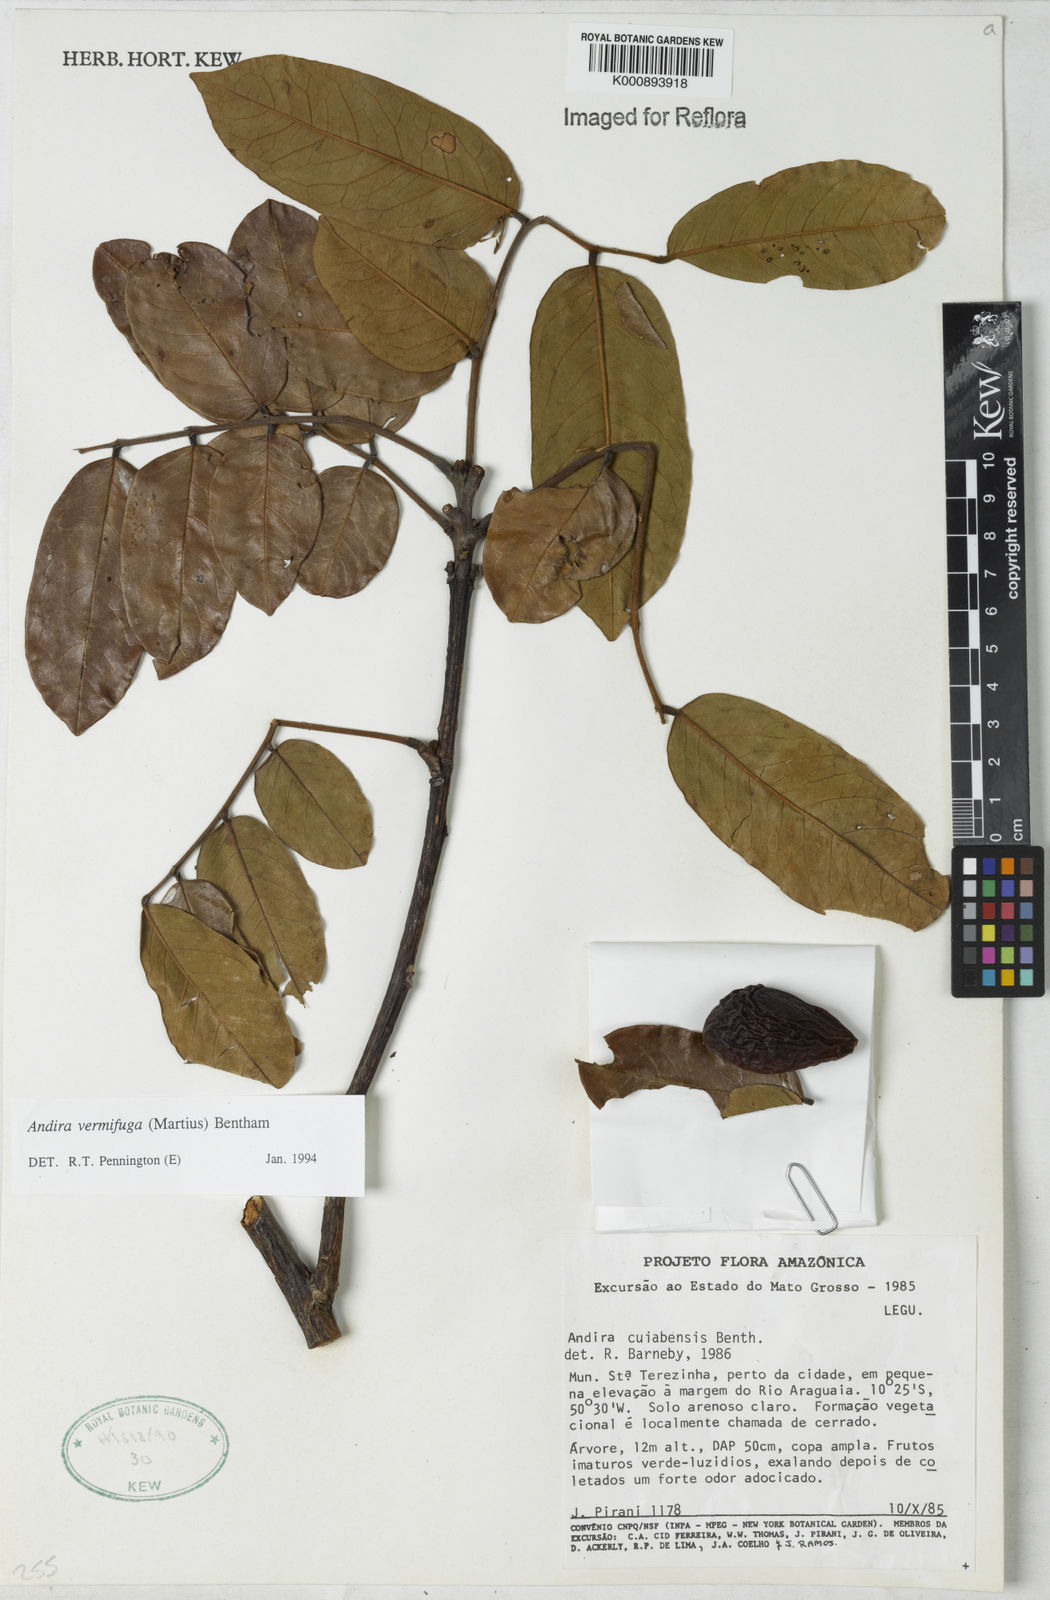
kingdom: Plantae
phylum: Tracheophyta
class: Magnoliopsida
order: Fabales
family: Fabaceae
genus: Andira
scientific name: Andira vermifuga
